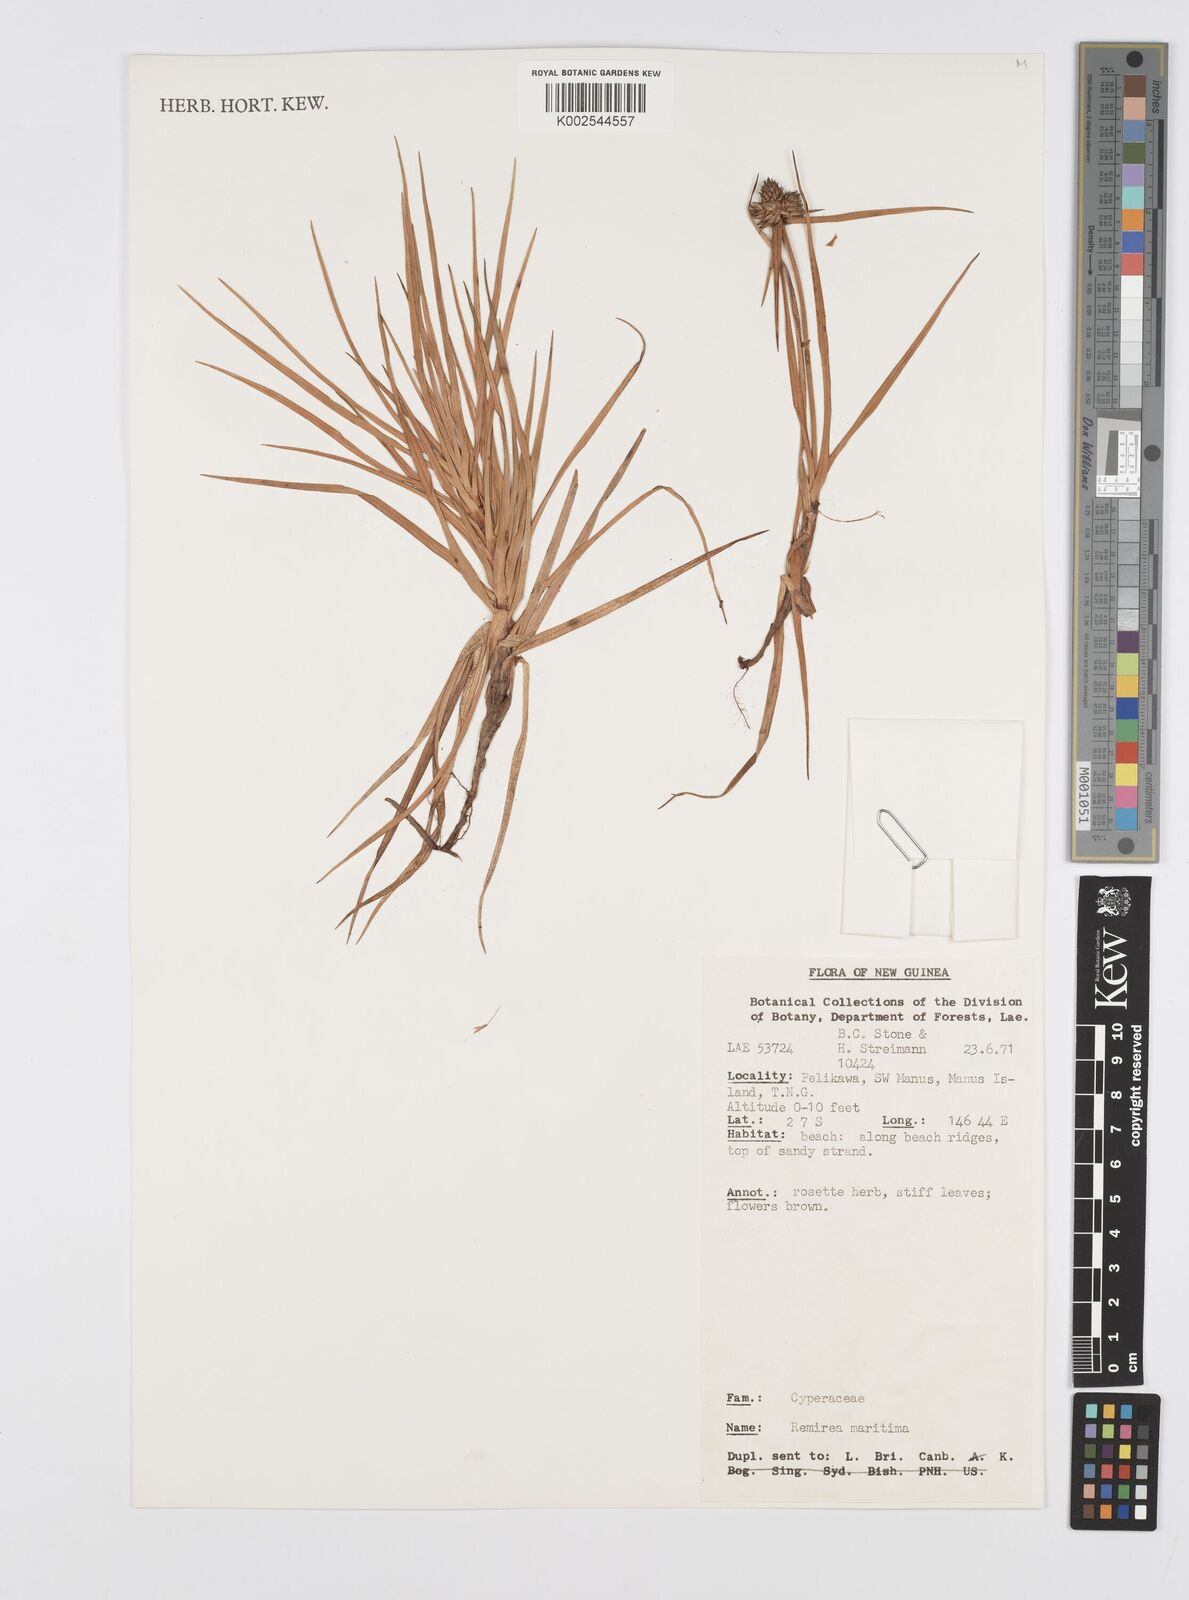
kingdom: Plantae
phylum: Tracheophyta
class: Liliopsida
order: Poales
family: Cyperaceae
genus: Cyperus
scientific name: Cyperus
